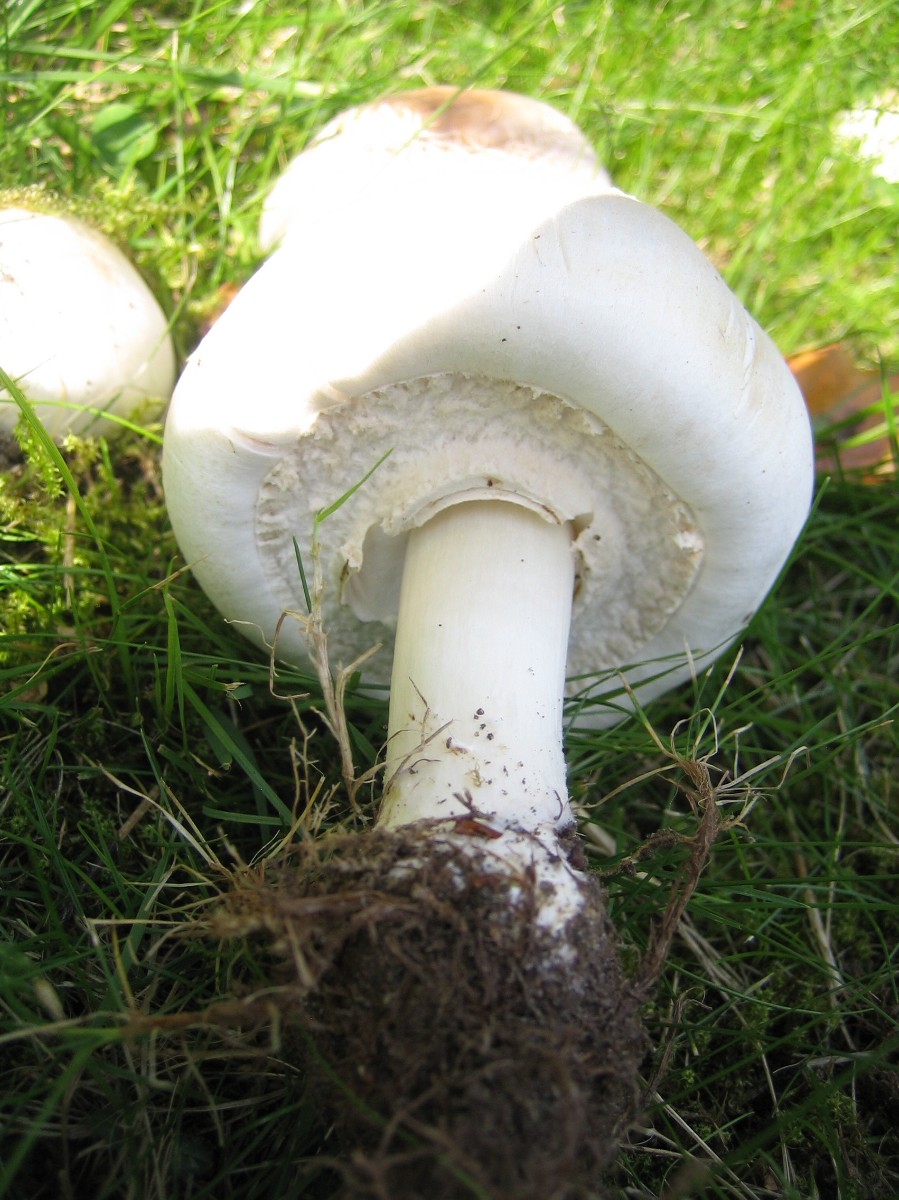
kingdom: Fungi
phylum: Basidiomycota
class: Agaricomycetes
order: Agaricales
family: Agaricaceae
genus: Agaricus
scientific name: Agaricus xanthodermus
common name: karbol-champignon
